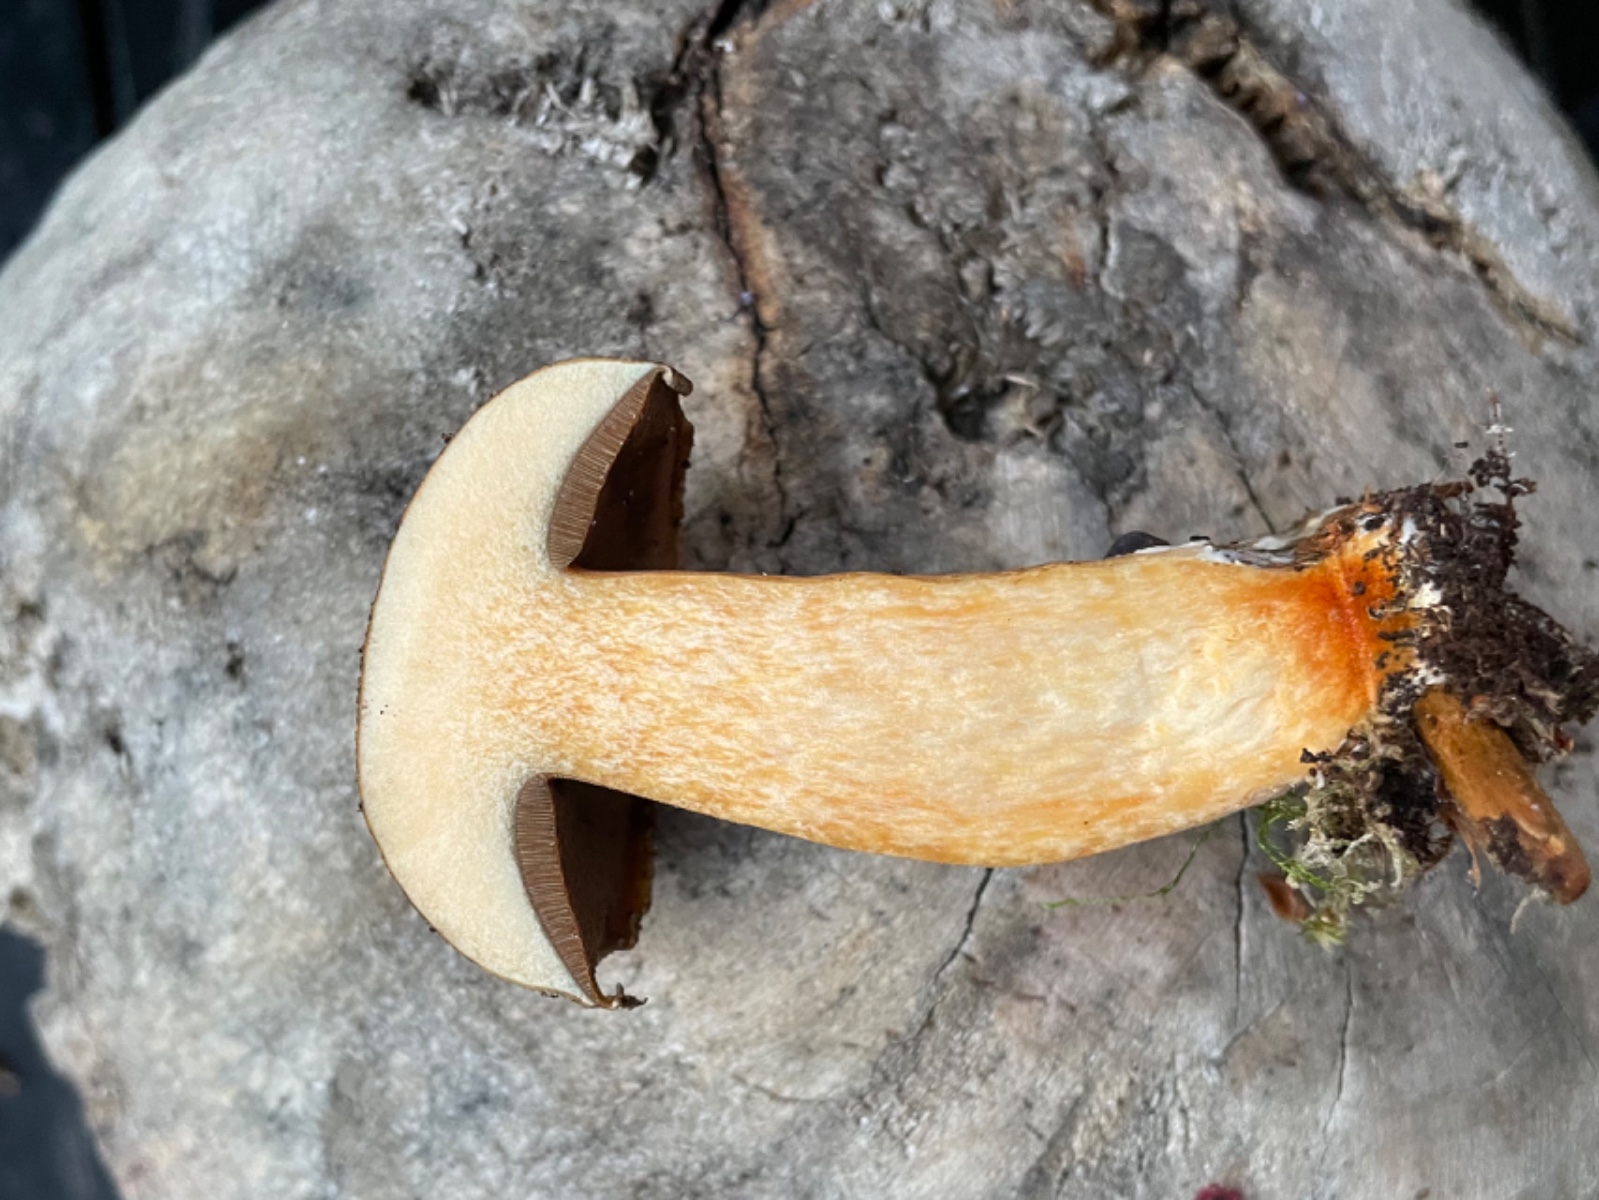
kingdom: Fungi
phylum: Basidiomycota
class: Agaricomycetes
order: Boletales
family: Suillaceae
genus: Suillus
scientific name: Suillus variegatus
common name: broget slimrørhat
